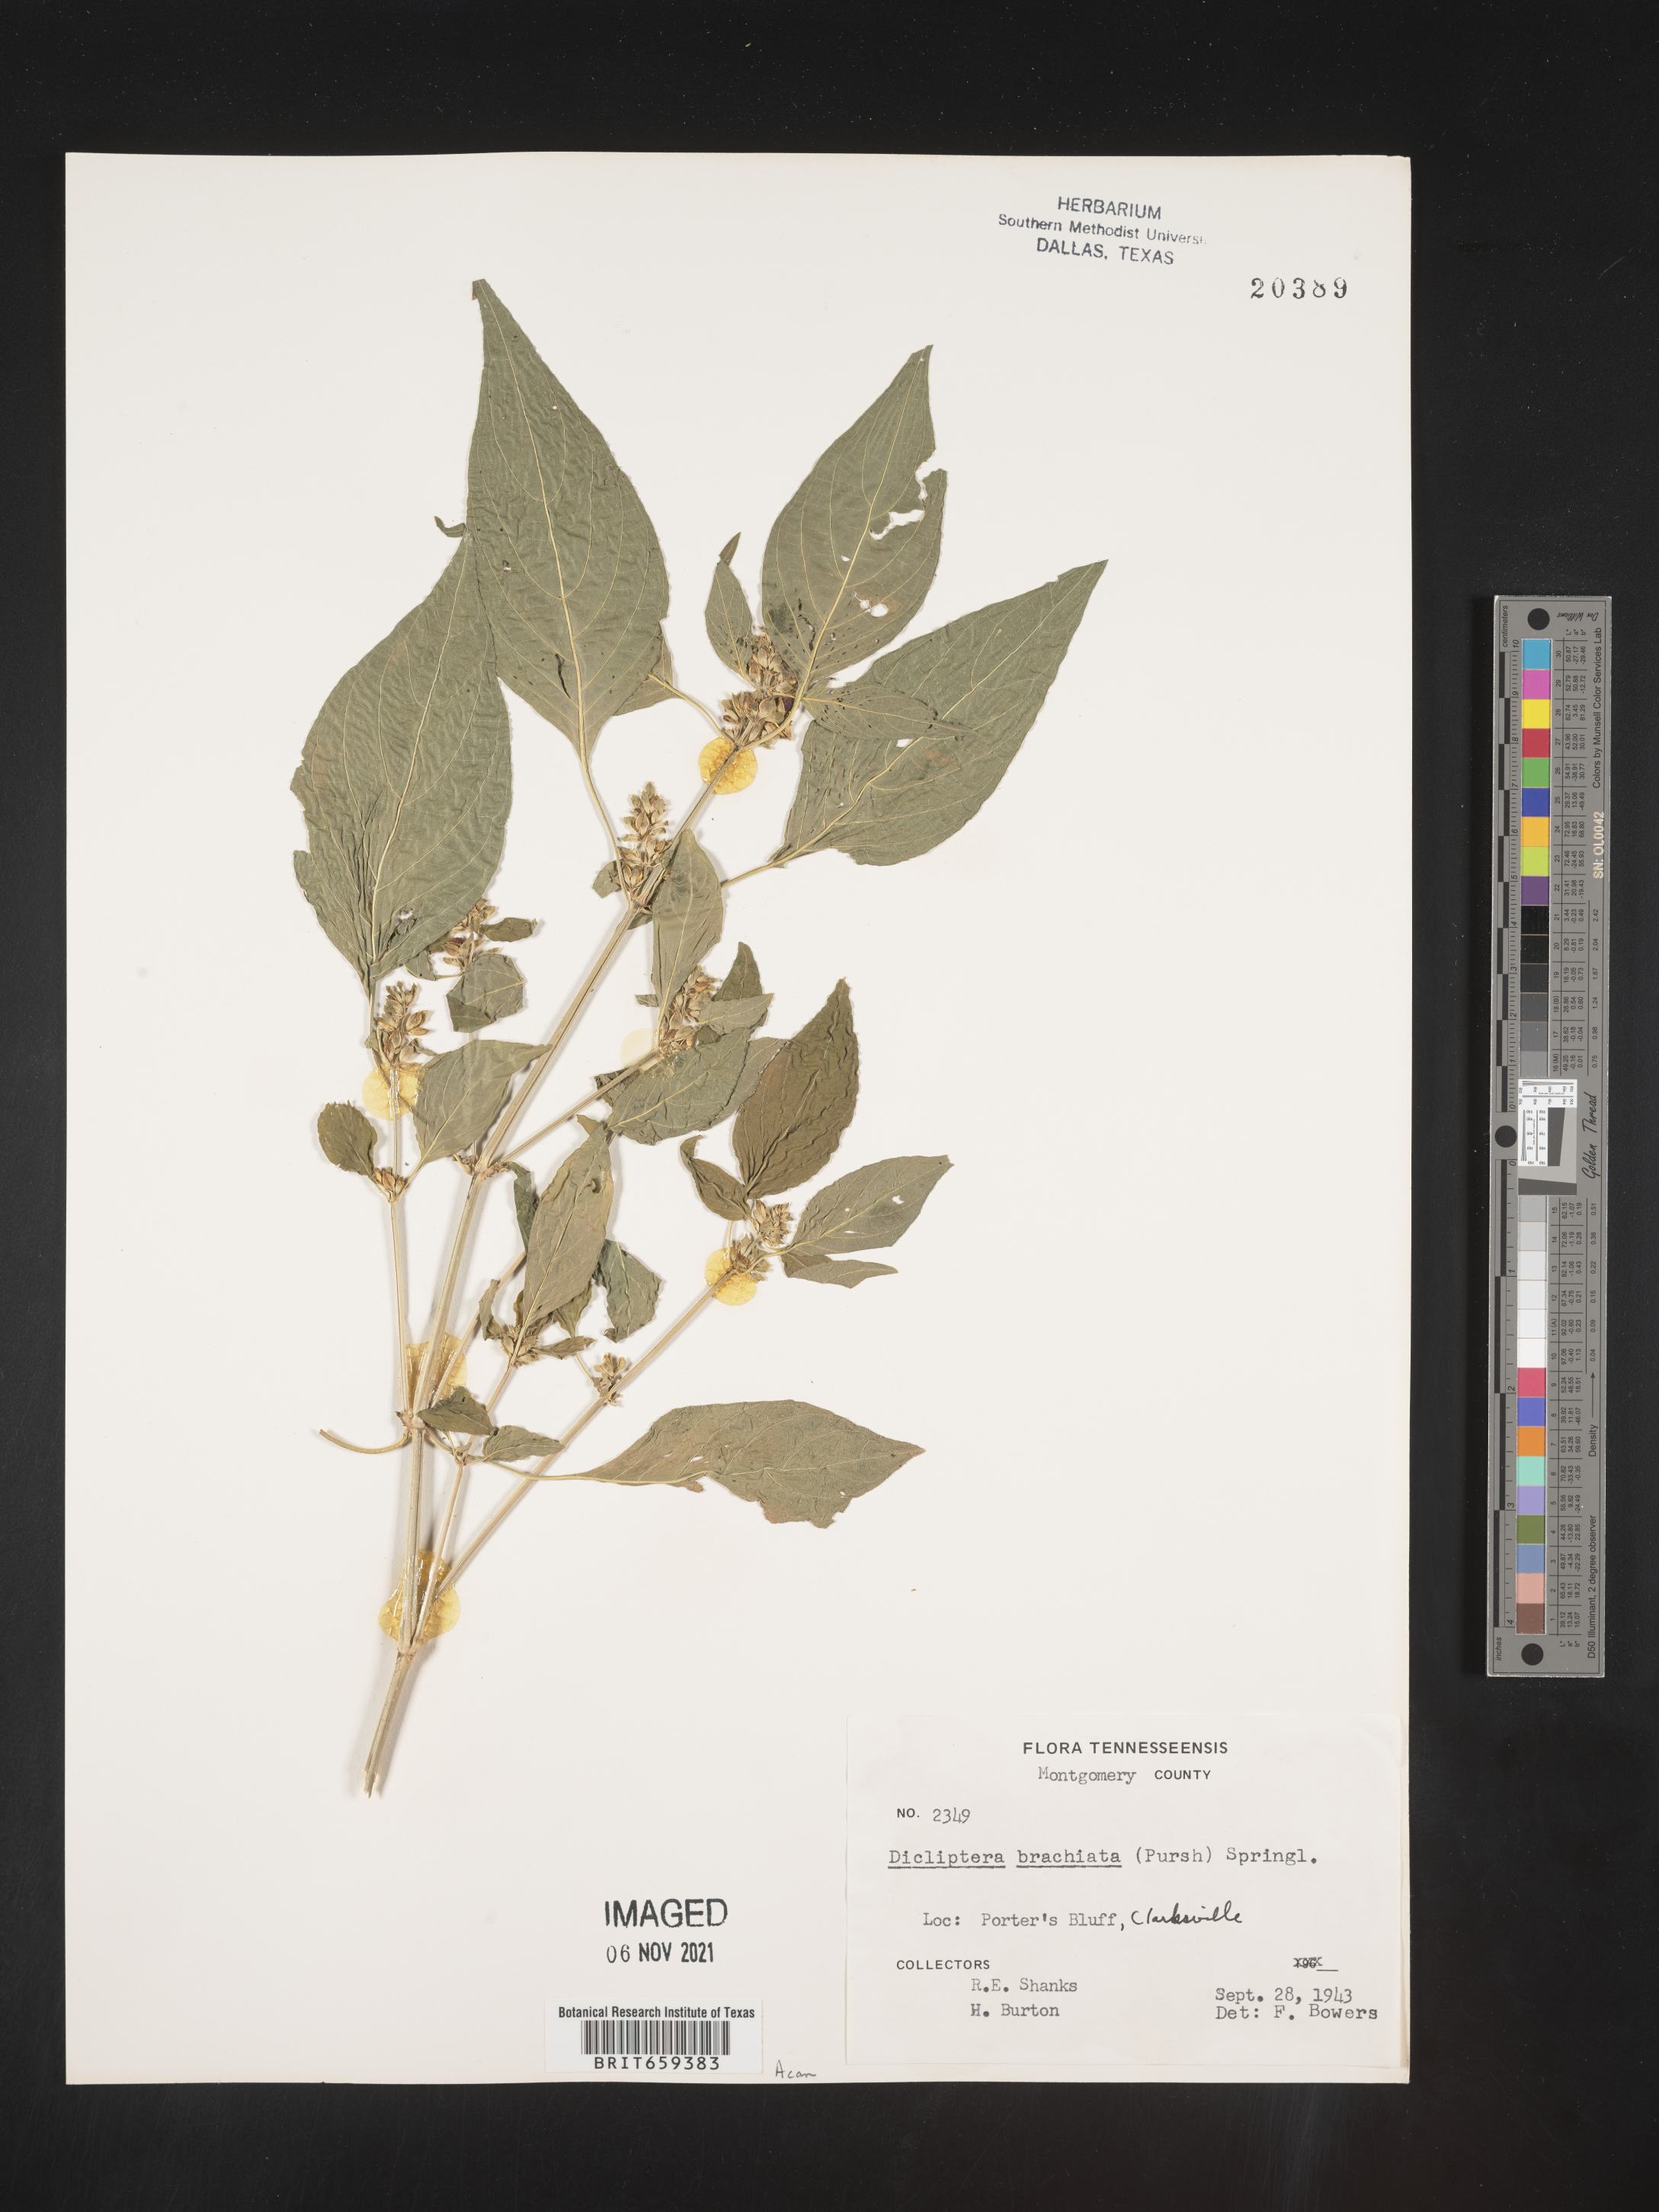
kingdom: Plantae
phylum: Tracheophyta
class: Magnoliopsida
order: Lamiales
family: Acanthaceae
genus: Dicliptera
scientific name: Dicliptera brachiata
